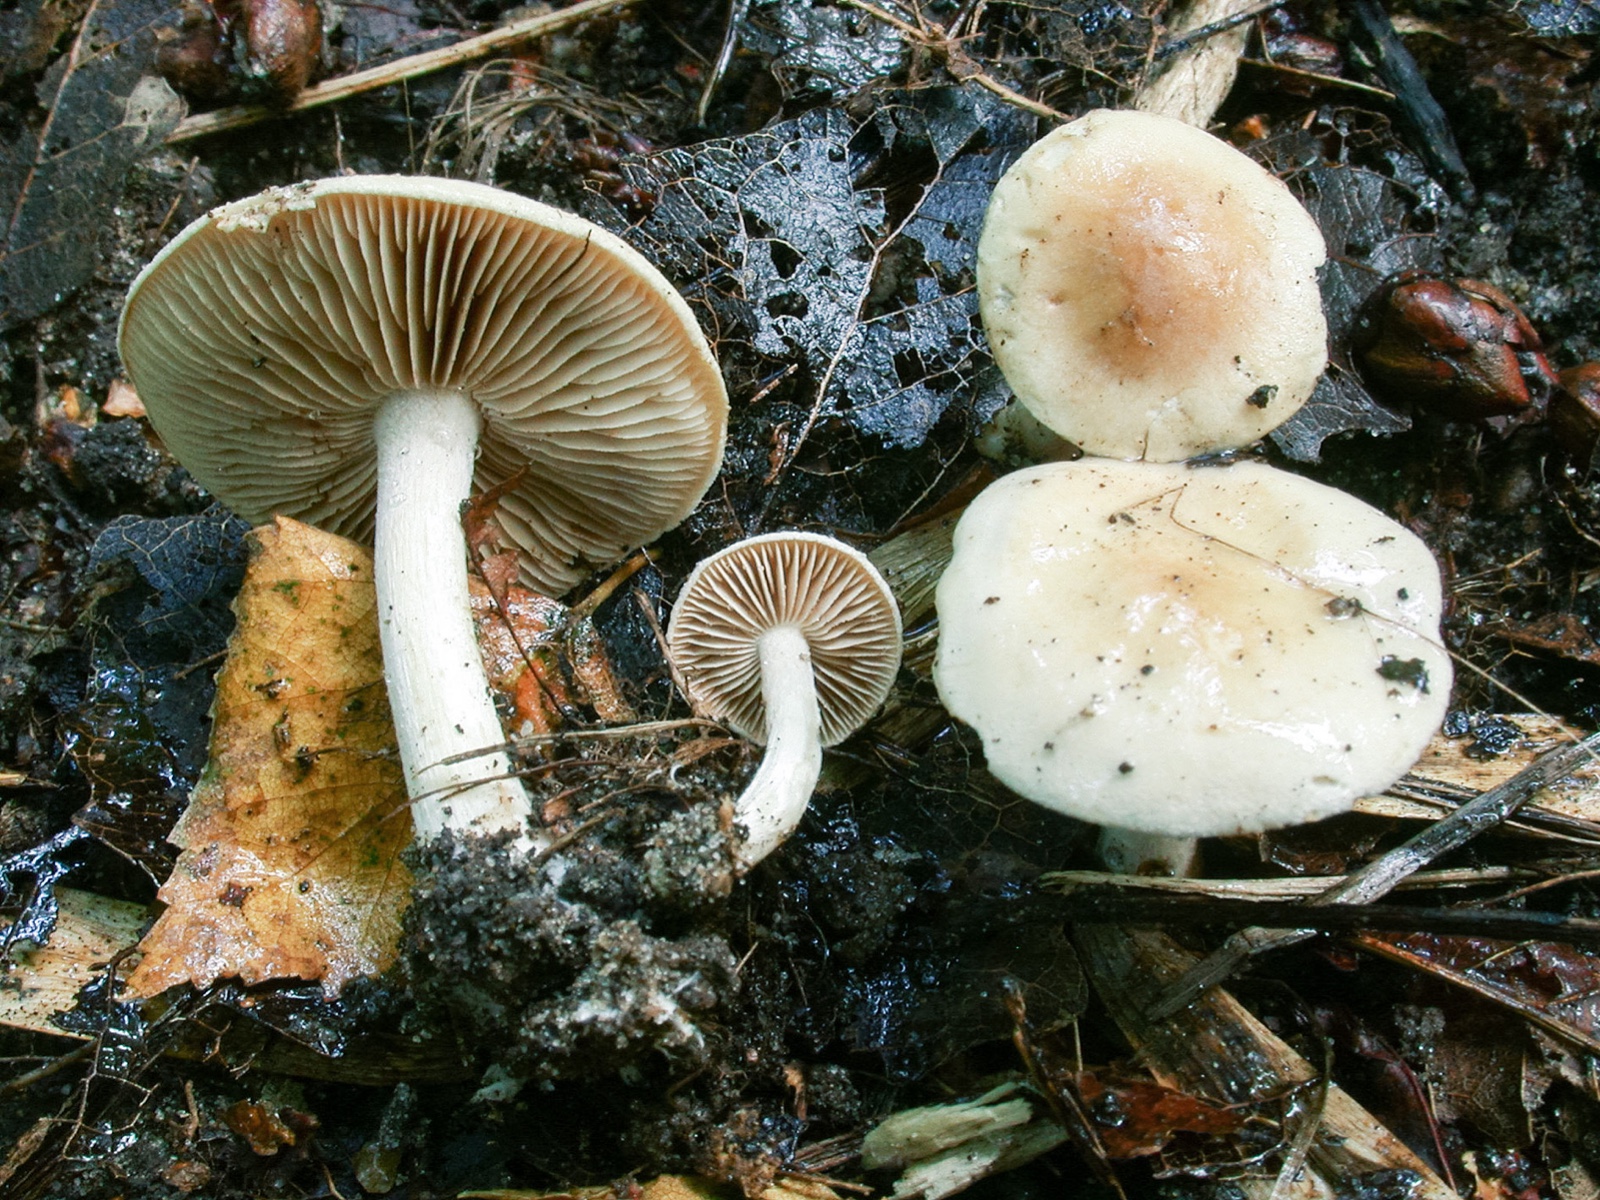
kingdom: Fungi
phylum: Basidiomycota
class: Agaricomycetes
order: Agaricales
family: Hymenogastraceae
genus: Hebeloma
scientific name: Hebeloma hiemale
